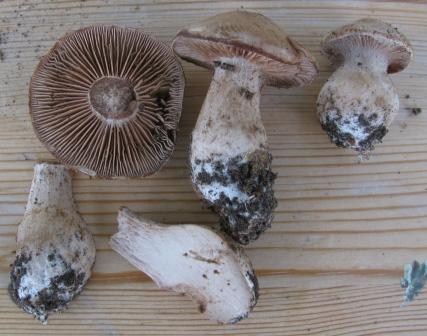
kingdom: Fungi
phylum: Basidiomycota
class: Agaricomycetes
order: Agaricales
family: Cortinariaceae
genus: Cortinarius
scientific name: Cortinarius pseudobulbosus
